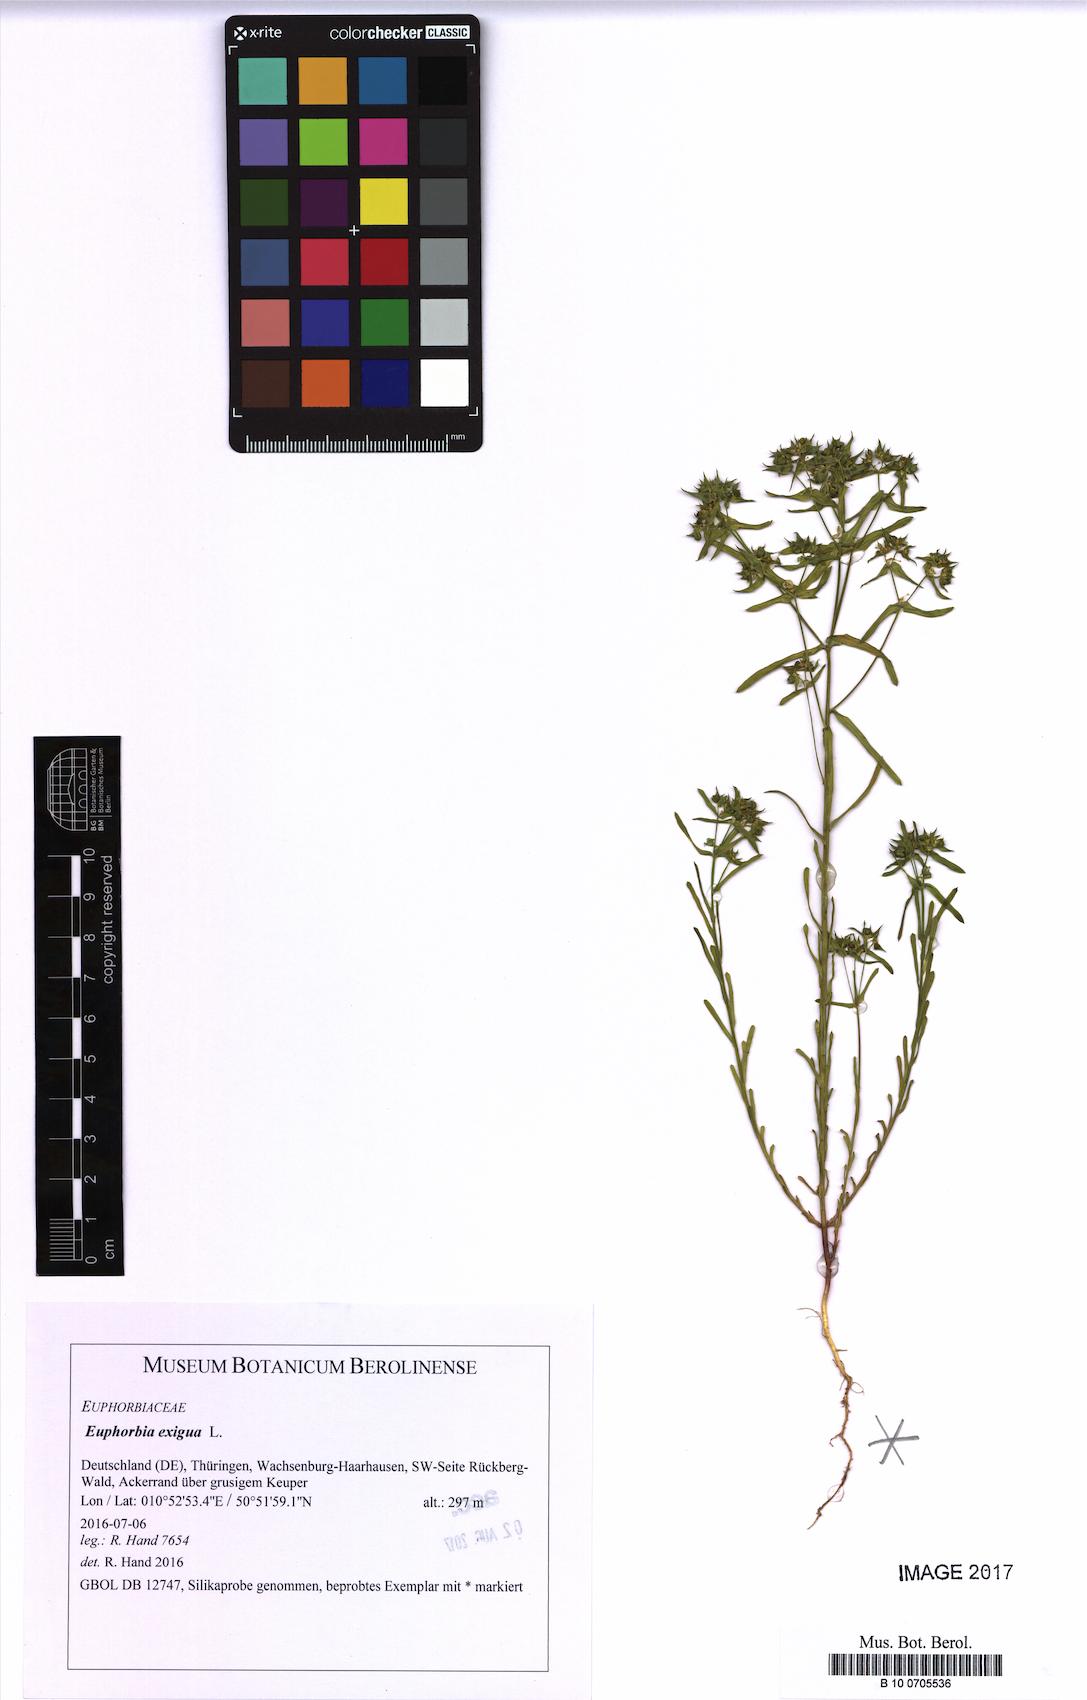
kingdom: Plantae
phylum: Tracheophyta
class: Magnoliopsida
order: Malpighiales
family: Euphorbiaceae
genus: Euphorbia
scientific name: Euphorbia exigua
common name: Dwarf spurge
